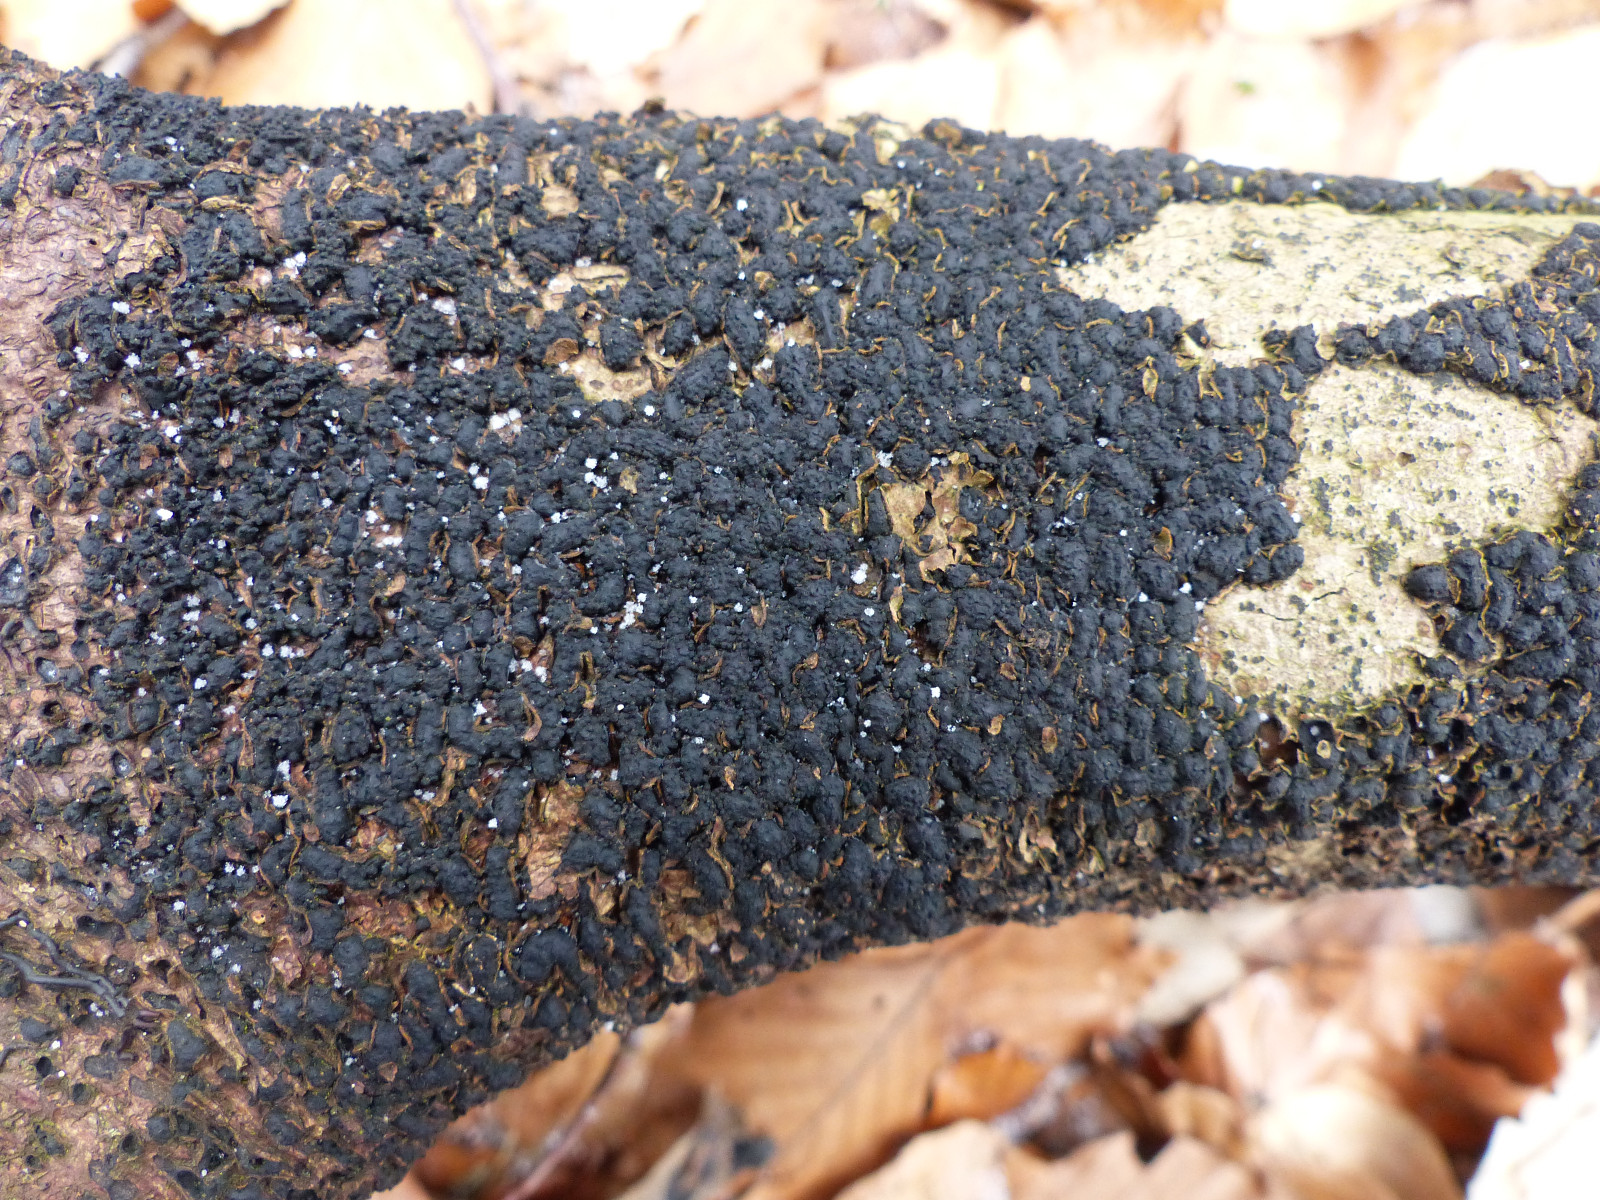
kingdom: Fungi
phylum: Ascomycota
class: Sordariomycetes
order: Xylariales
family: Melogrammataceae
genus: Melogramma
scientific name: Melogramma spiniferum
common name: bøgefod-kulhals
